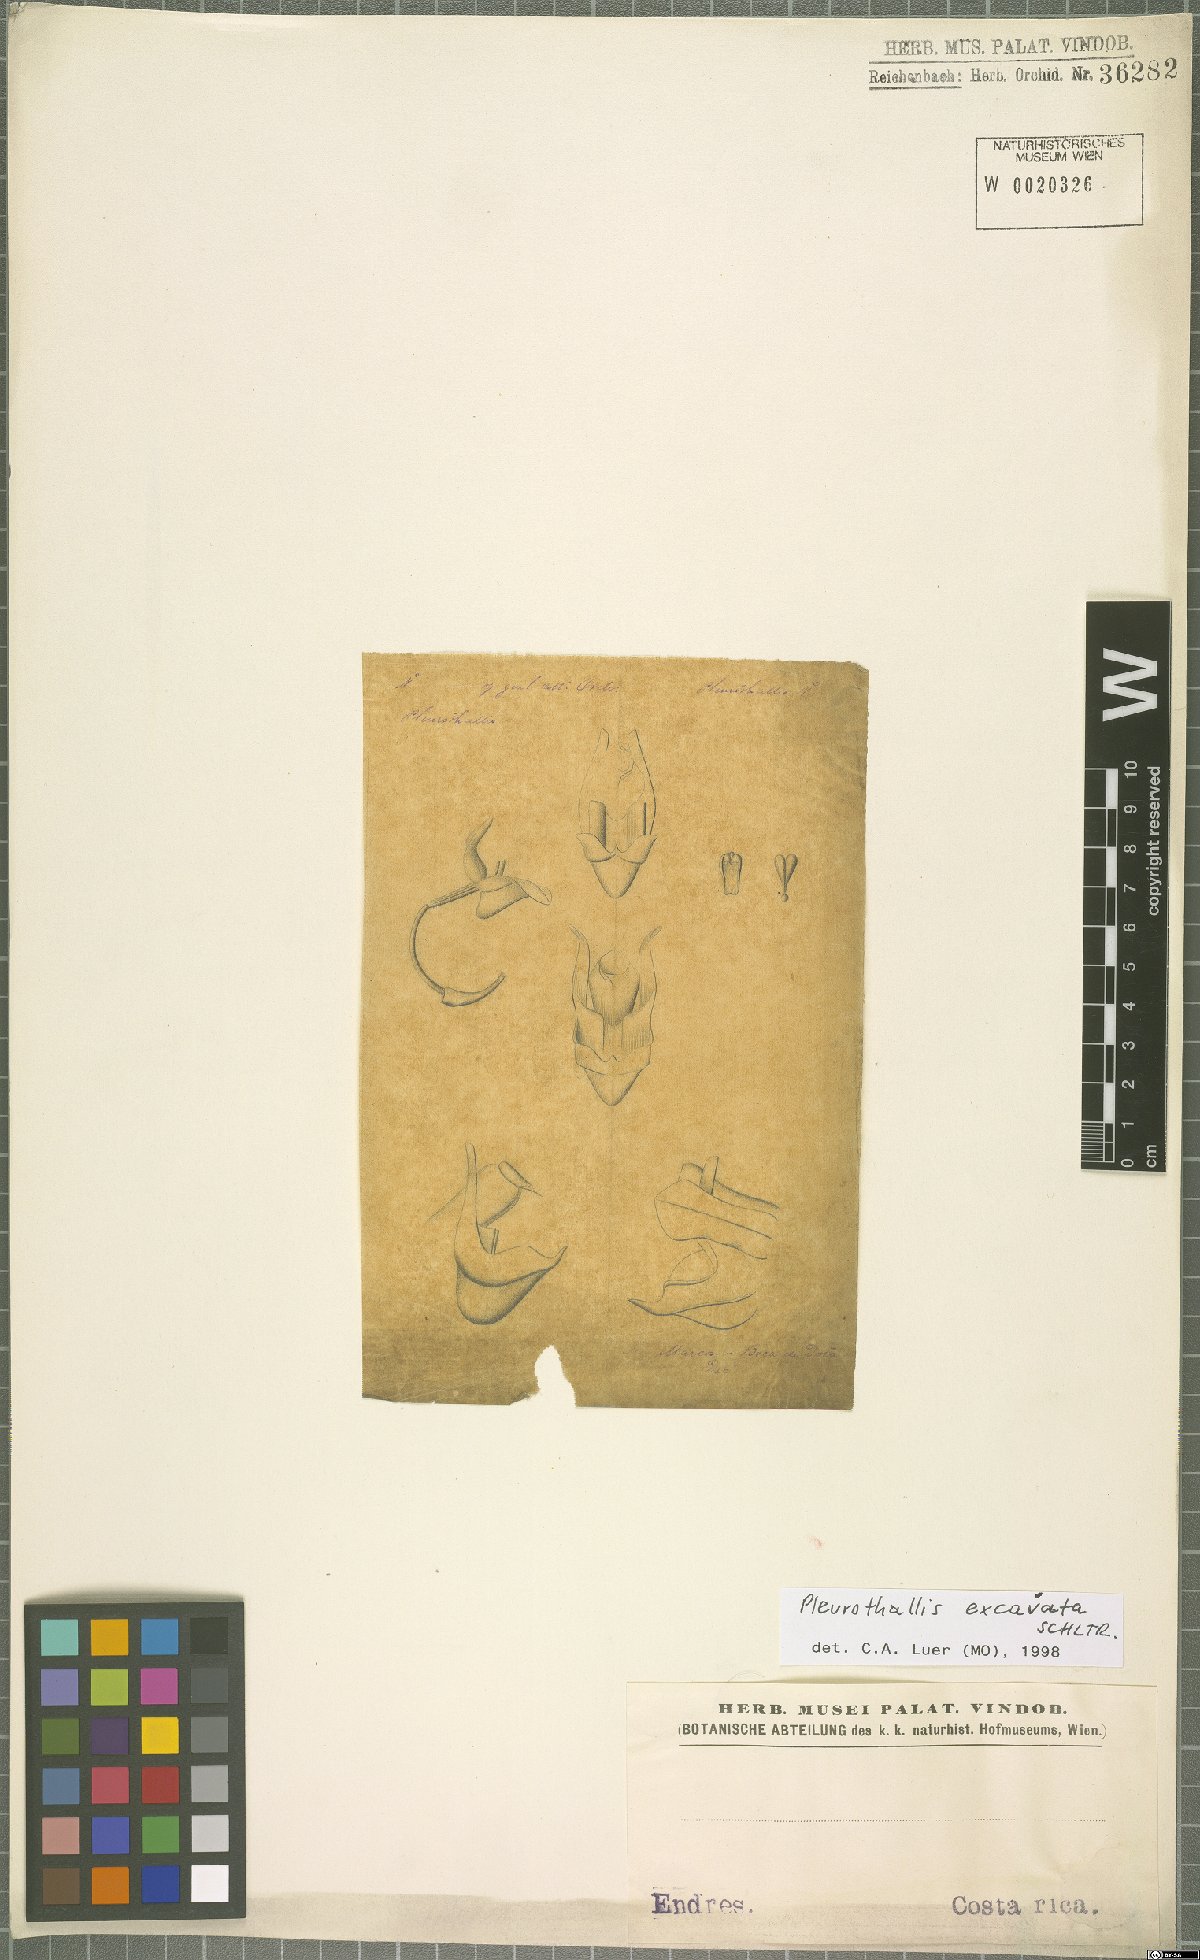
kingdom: Plantae
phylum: Tracheophyta
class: Liliopsida
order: Asparagales
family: Orchidaceae
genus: Pleurothallis
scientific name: Pleurothallis excavata
